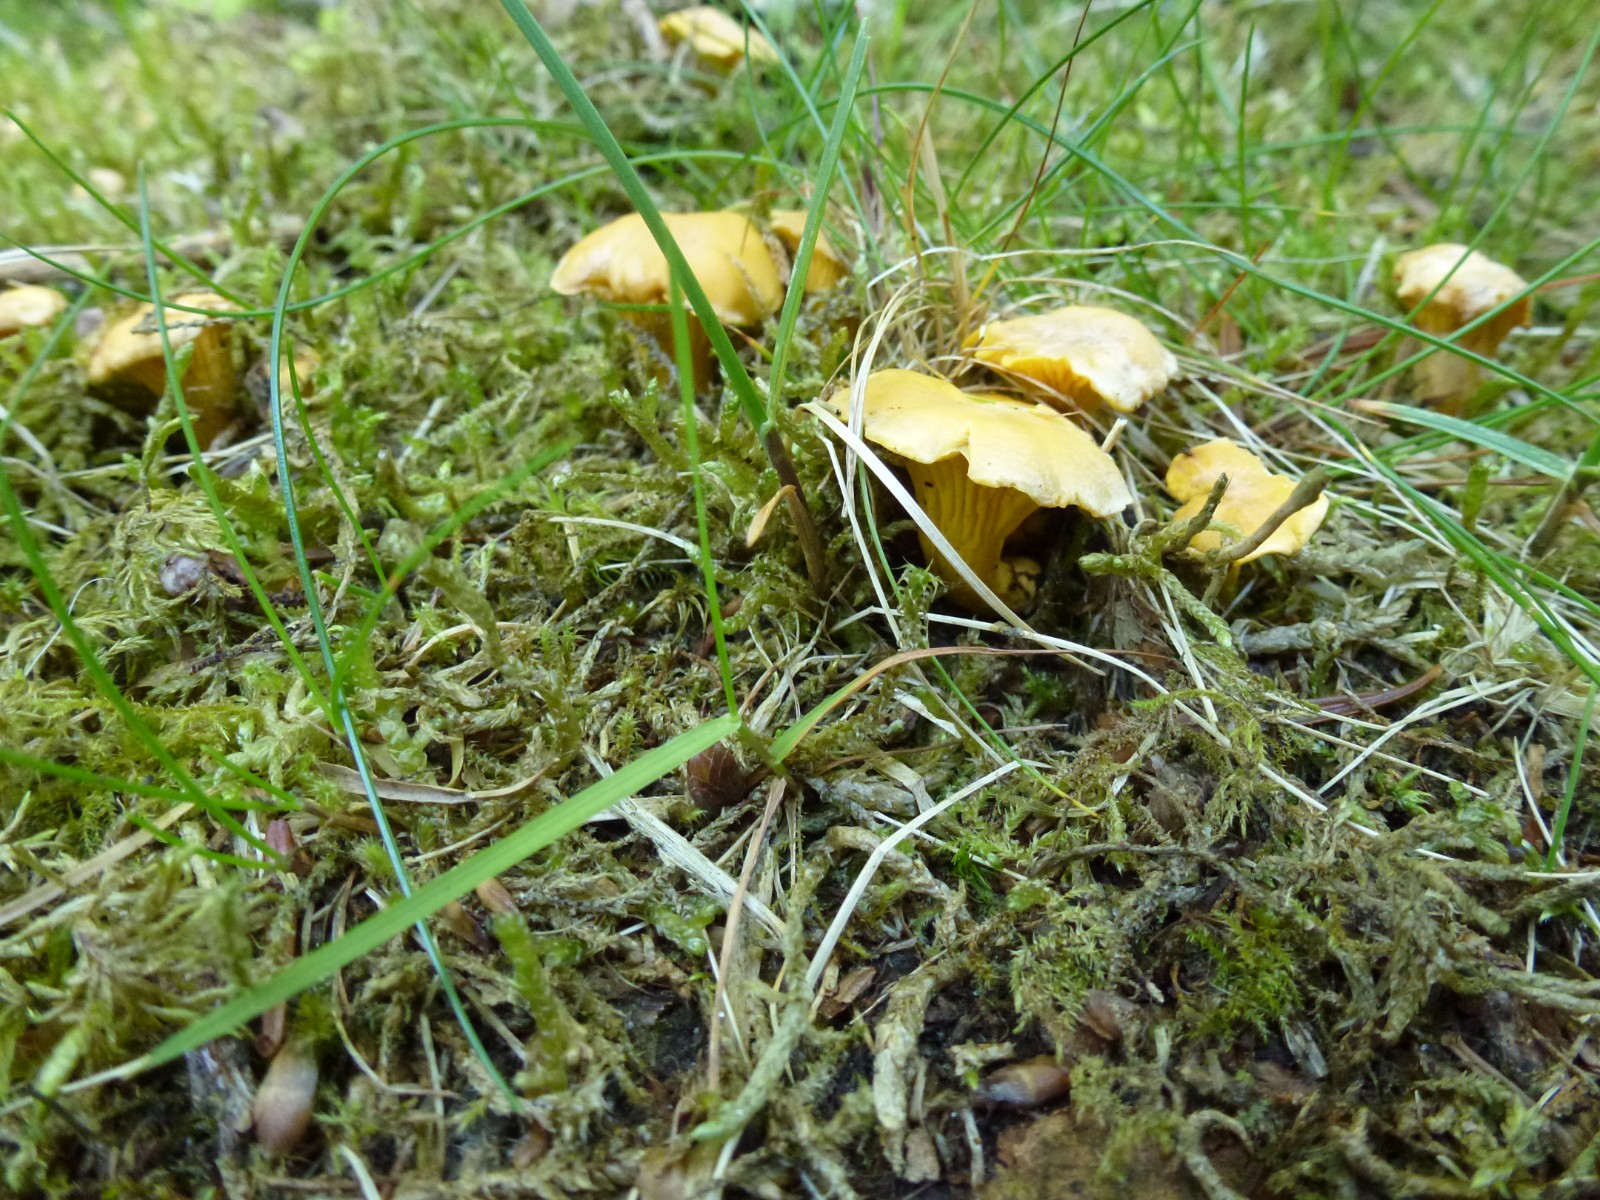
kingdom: Fungi
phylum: Basidiomycota
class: Agaricomycetes
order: Cantharellales
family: Hydnaceae
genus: Cantharellus
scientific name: Cantharellus cibarius
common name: almindelig kantarel
